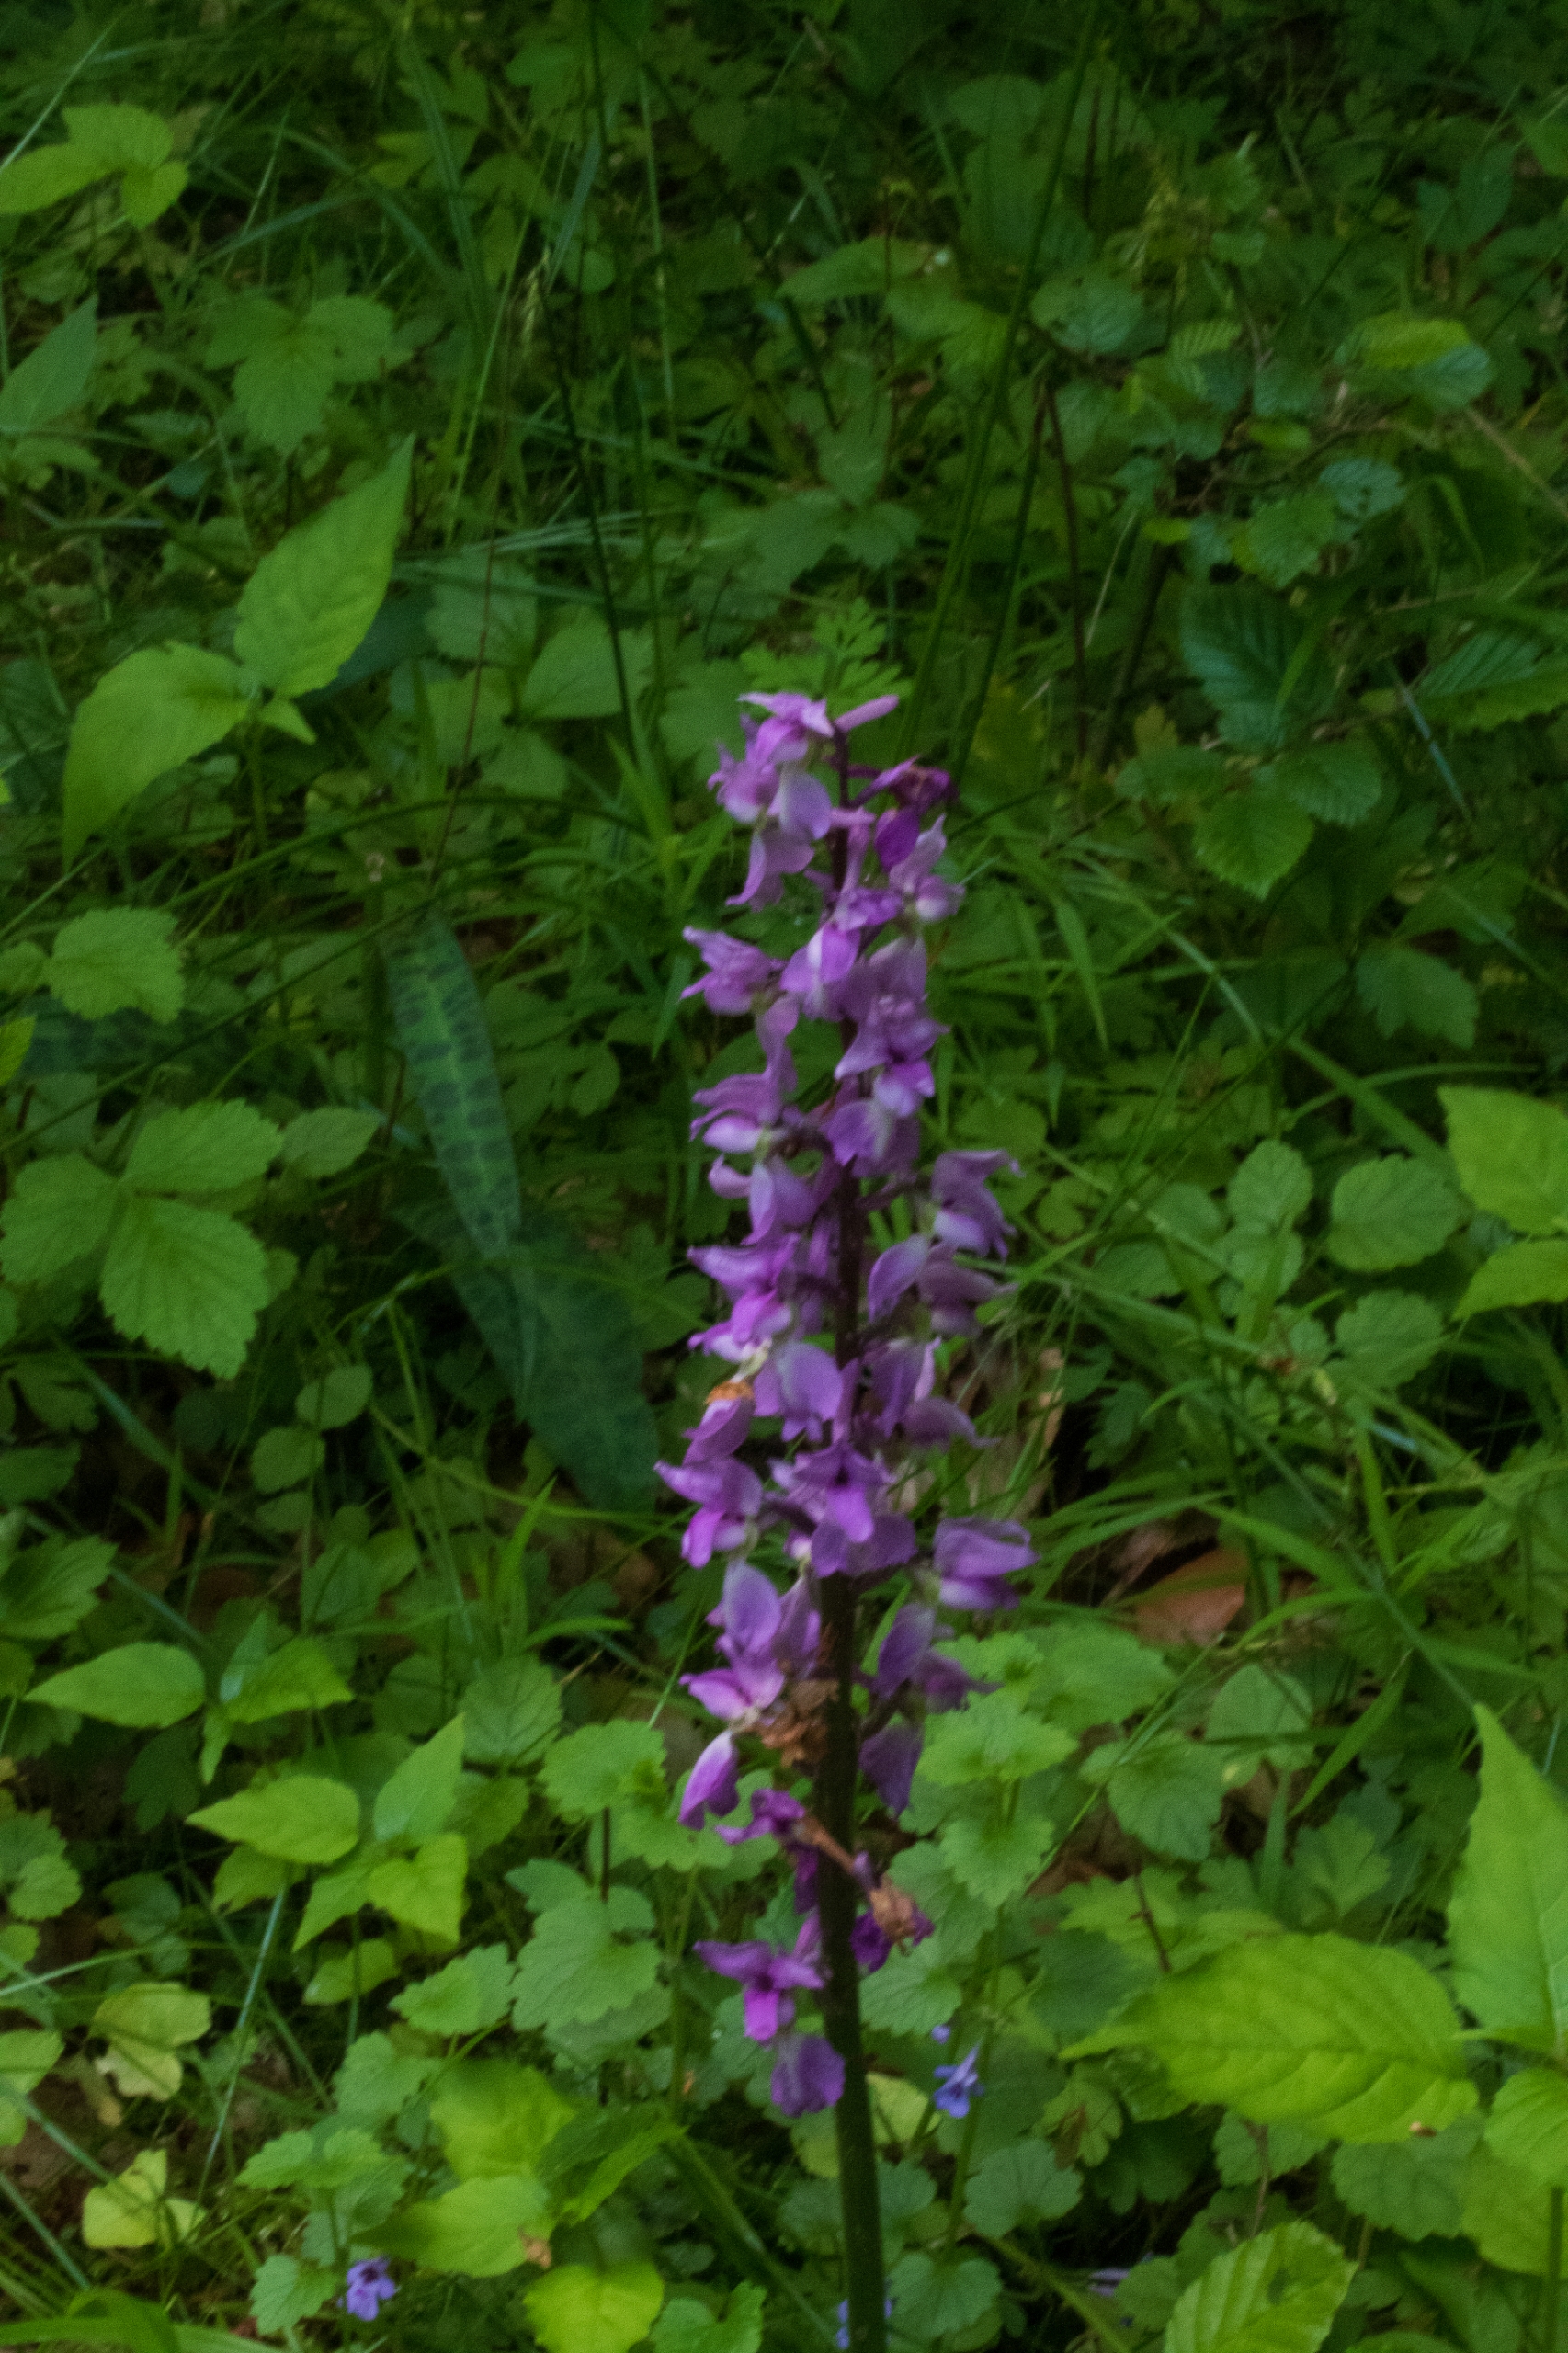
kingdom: Plantae
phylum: Tracheophyta
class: Liliopsida
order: Asparagales
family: Orchidaceae
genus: Orchis
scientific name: Orchis mascula
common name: Tyndakset gøgeurt
